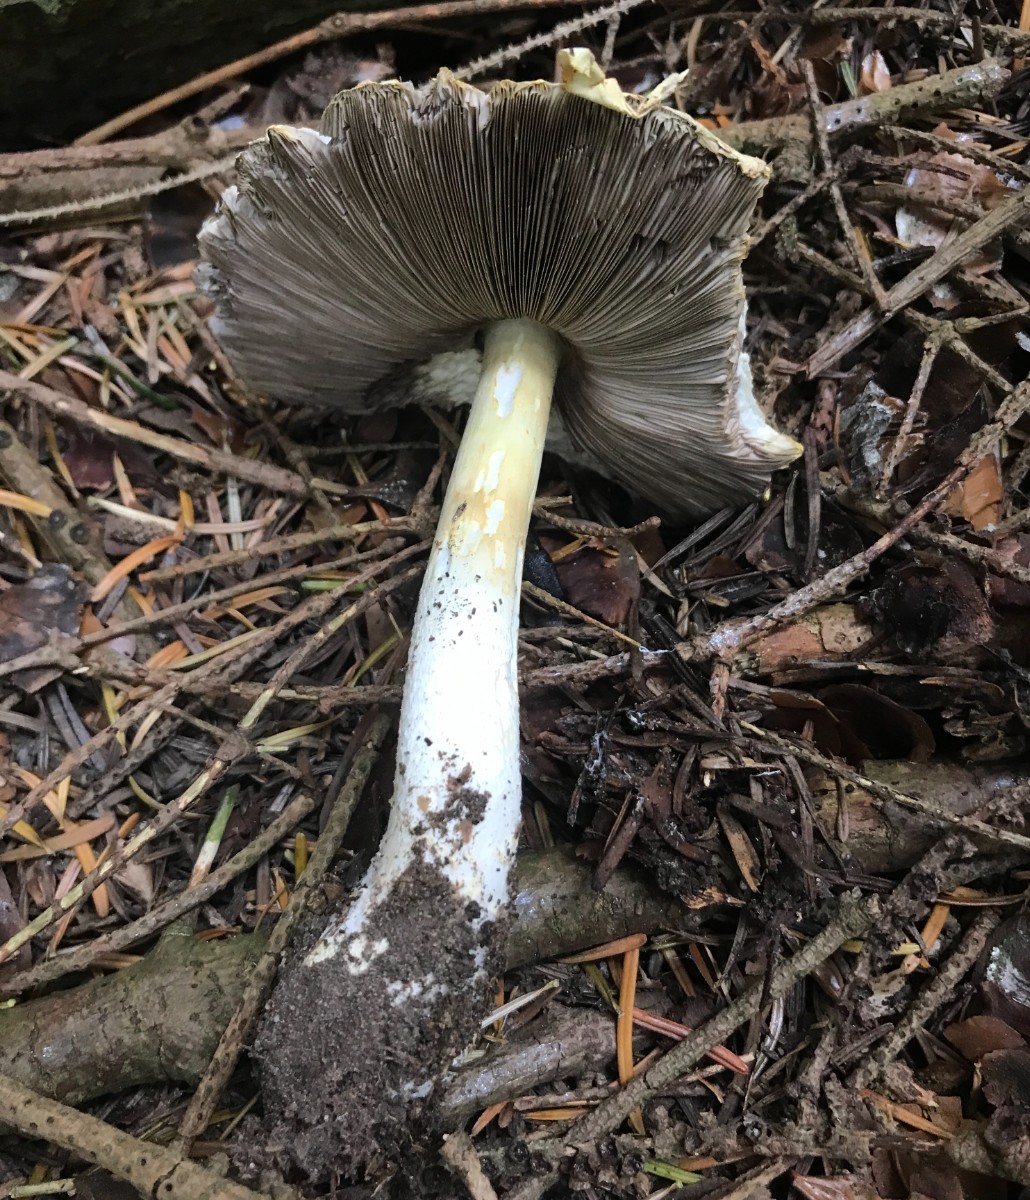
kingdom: Fungi
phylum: Basidiomycota
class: Agaricomycetes
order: Agaricales
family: Agaricaceae
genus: Agaricus
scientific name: Agaricus augustus
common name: prægtig champignon
